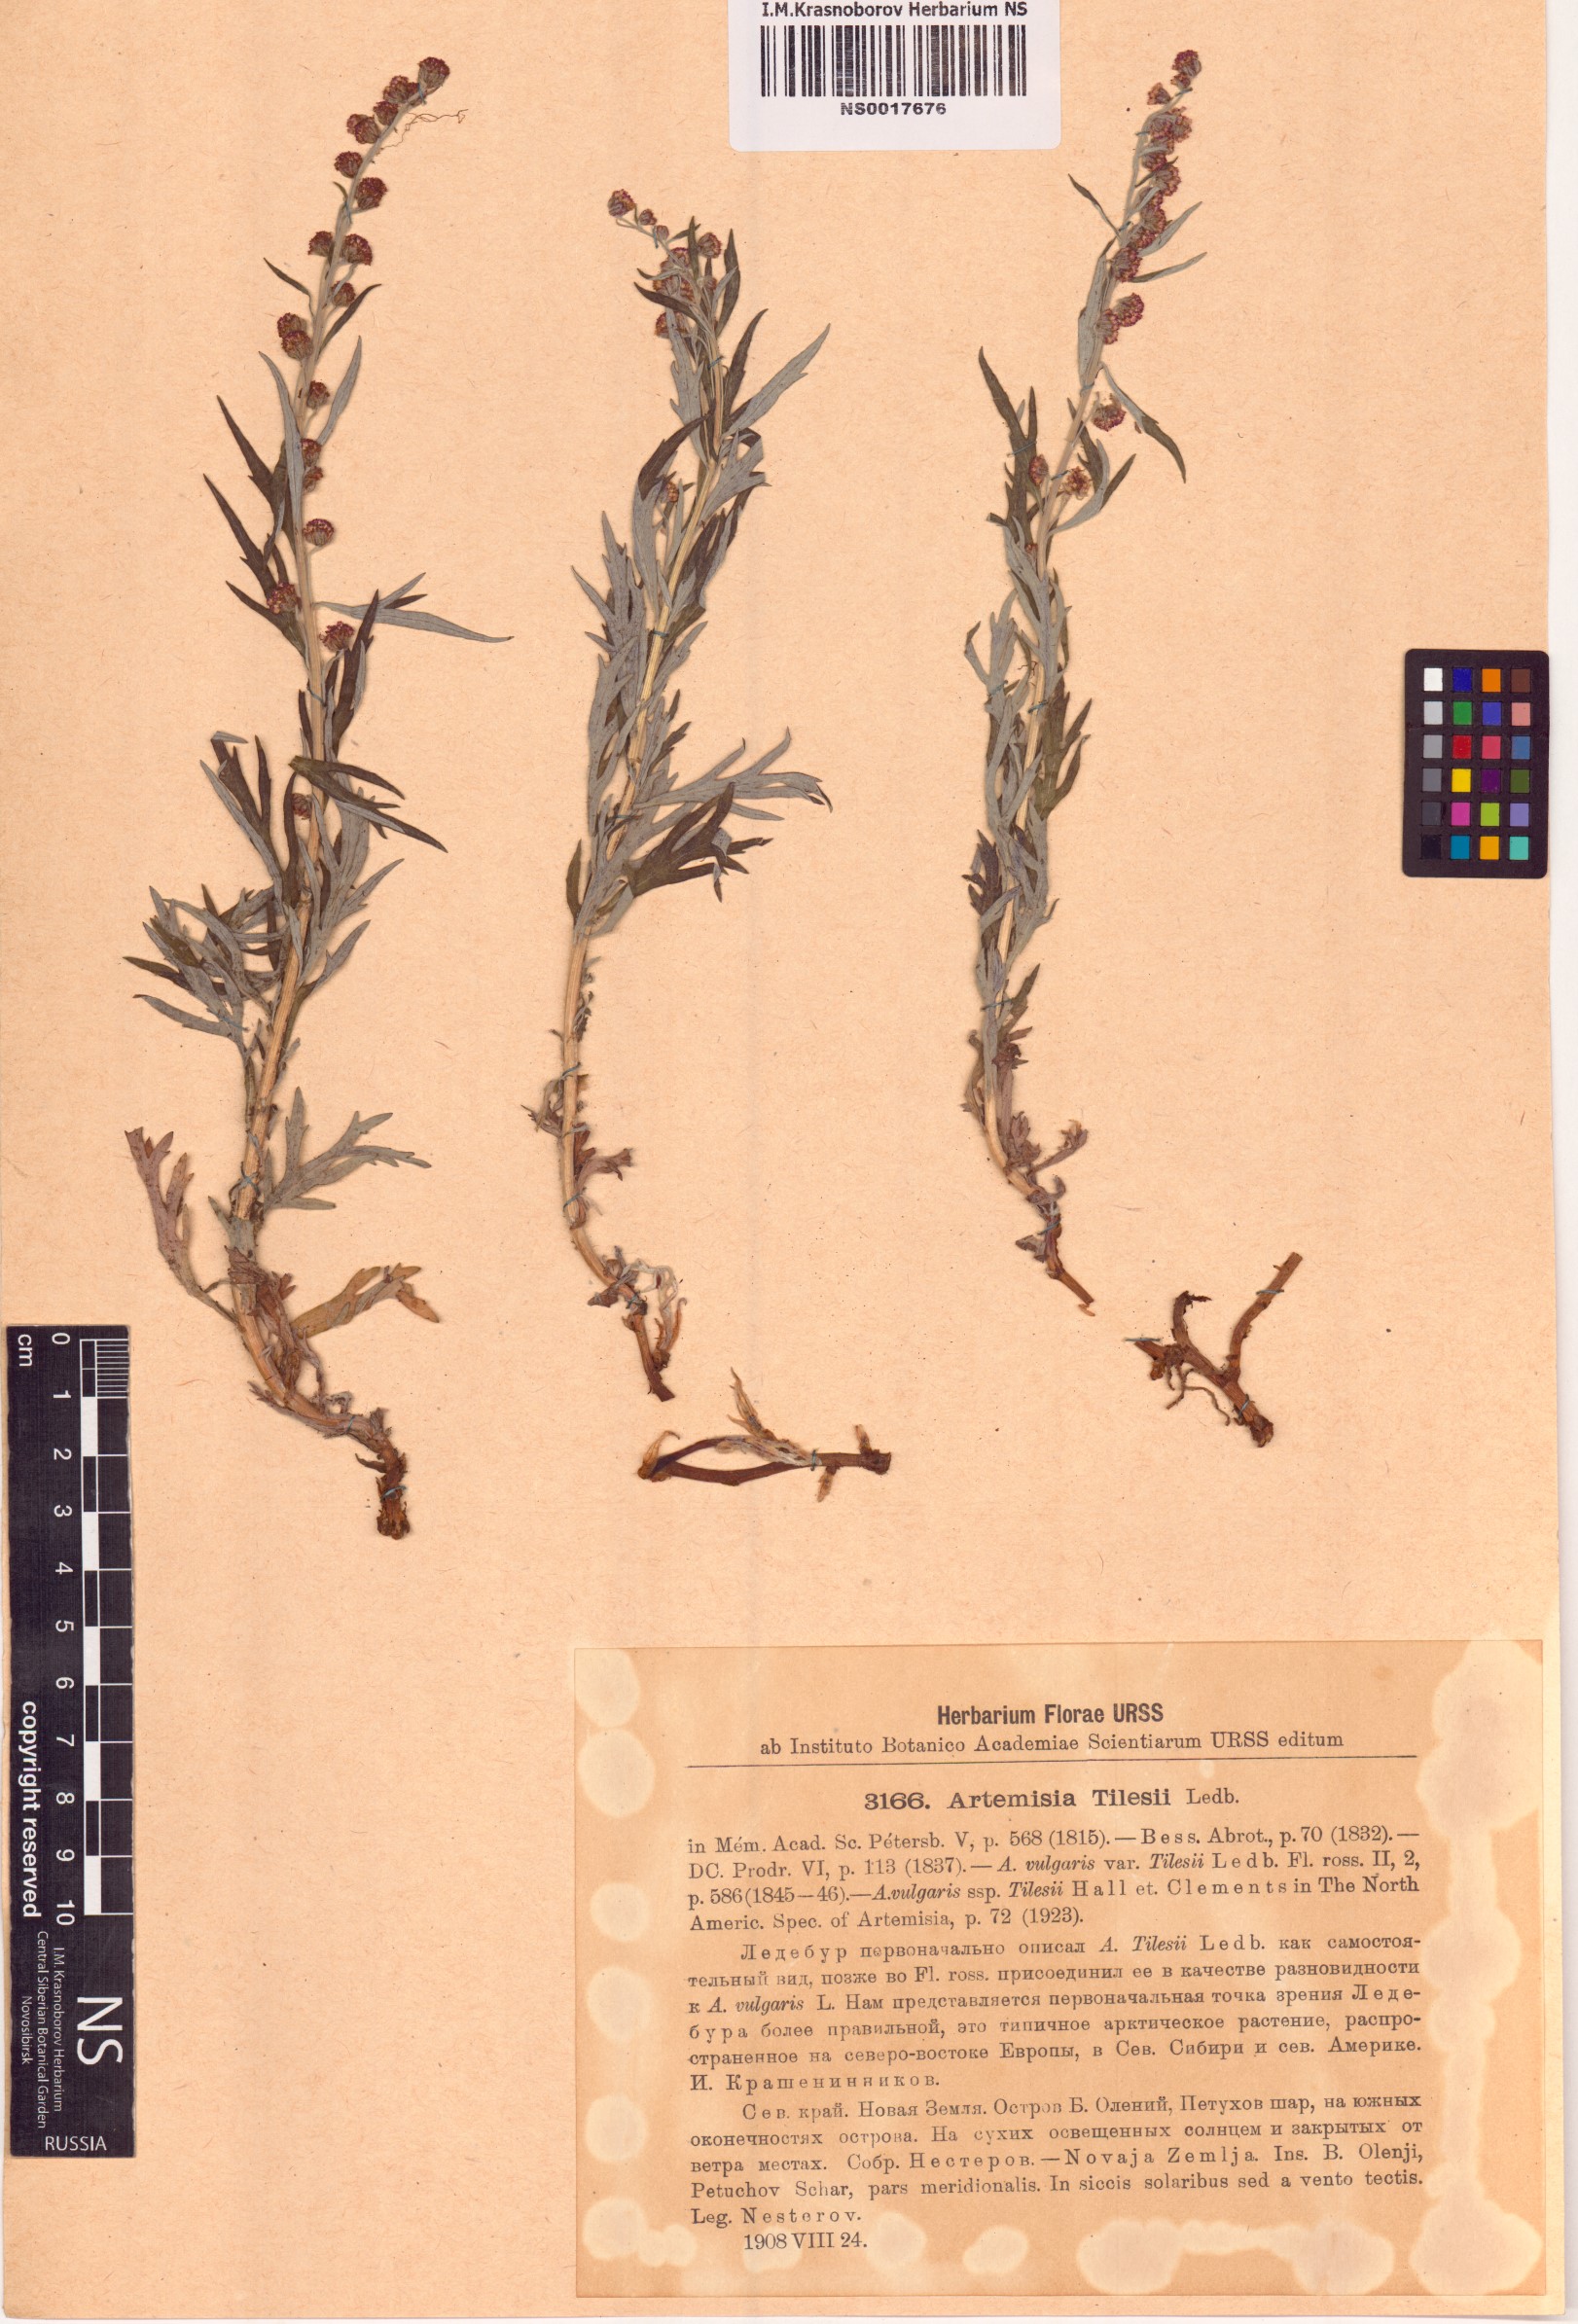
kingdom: Plantae
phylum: Tracheophyta
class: Magnoliopsida
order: Asterales
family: Asteraceae
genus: Artemisia
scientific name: Artemisia tilesii
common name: Aleutian mugwort
